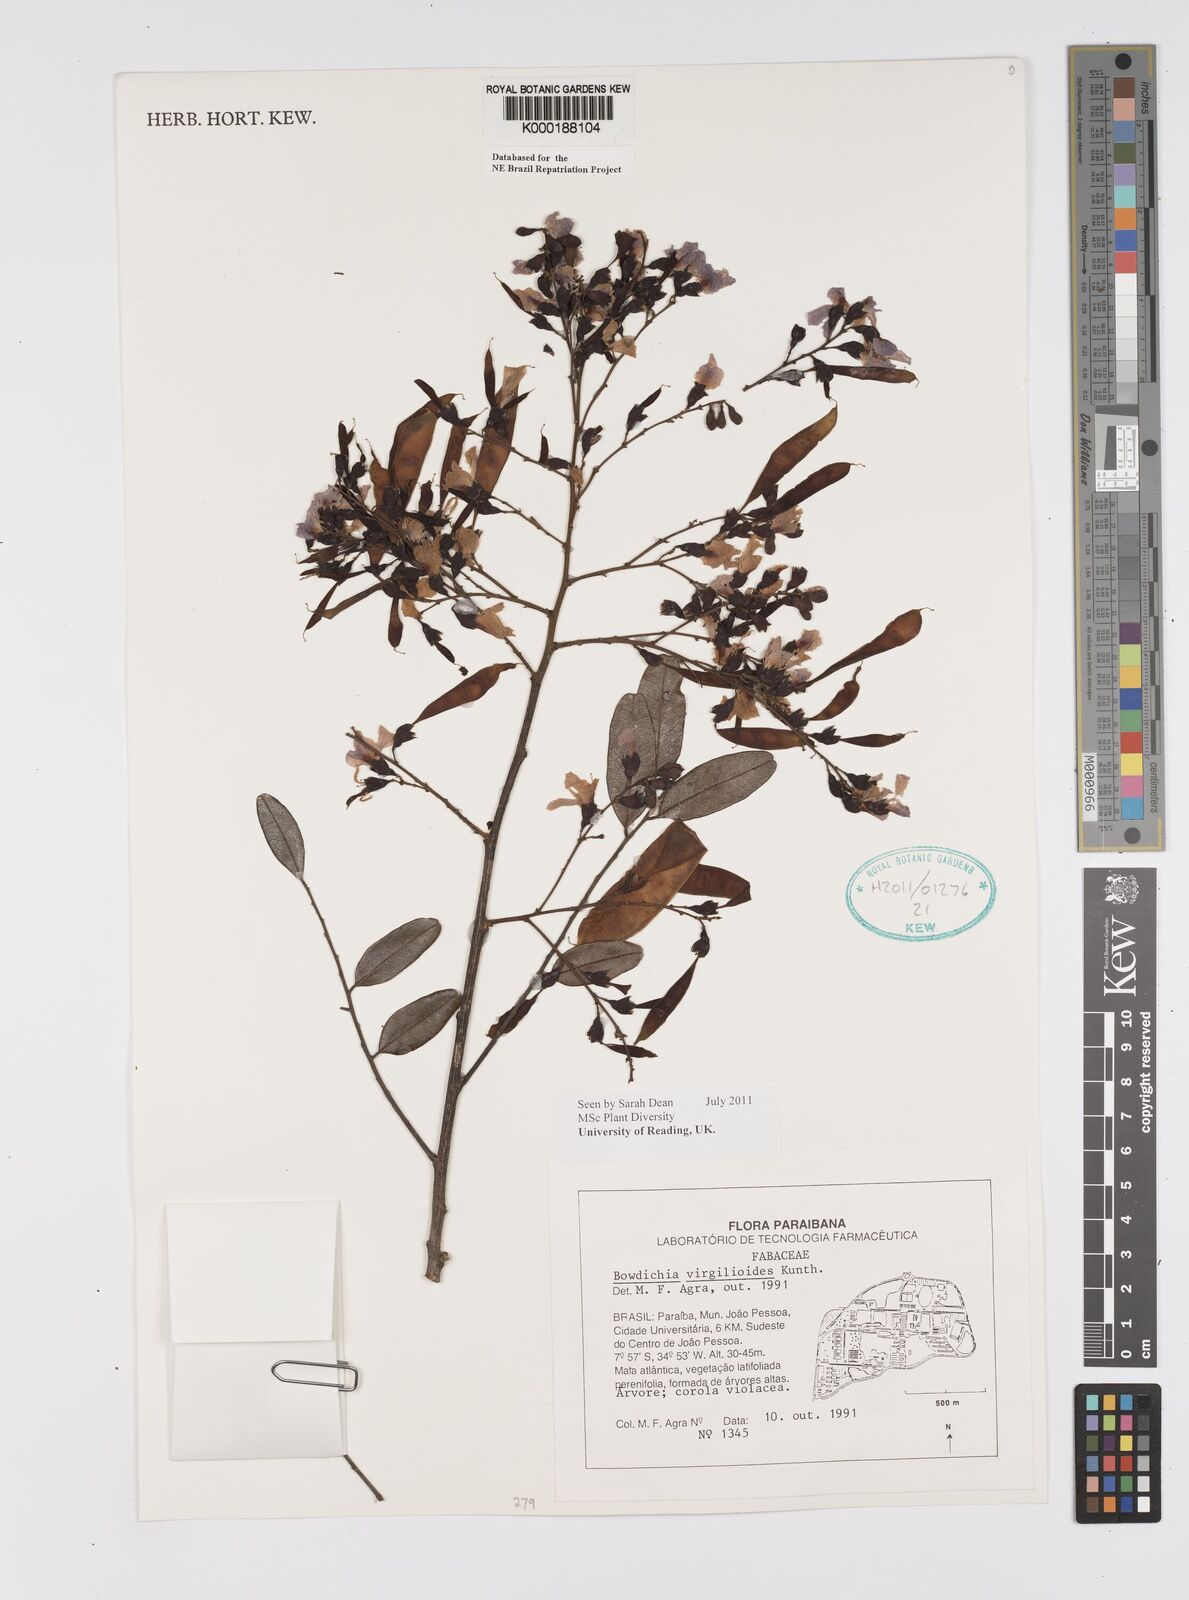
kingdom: Plantae
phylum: Tracheophyta
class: Magnoliopsida
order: Fabales
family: Fabaceae
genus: Bowdichia
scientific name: Bowdichia virgilioides
